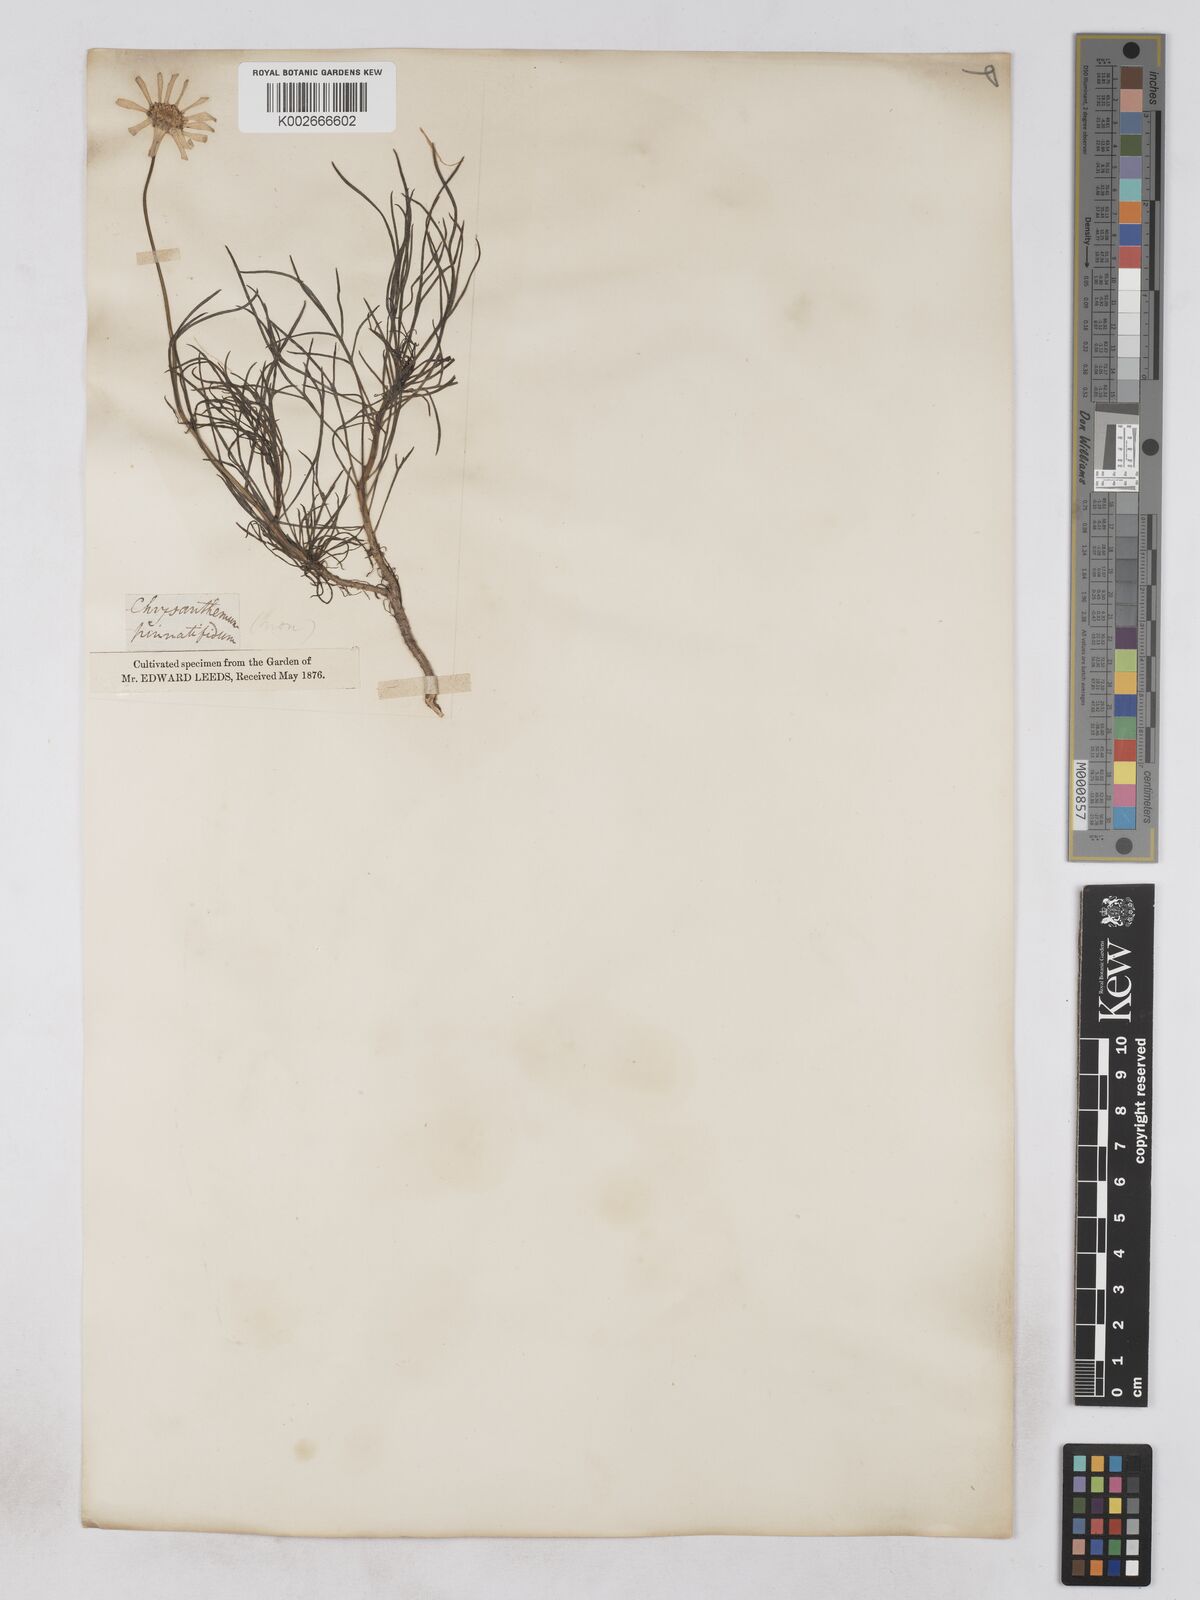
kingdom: Plantae
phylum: Tracheophyta
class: Magnoliopsida
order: Asterales
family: Asteraceae
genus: Argyranthemum
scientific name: Argyranthemum gracile
